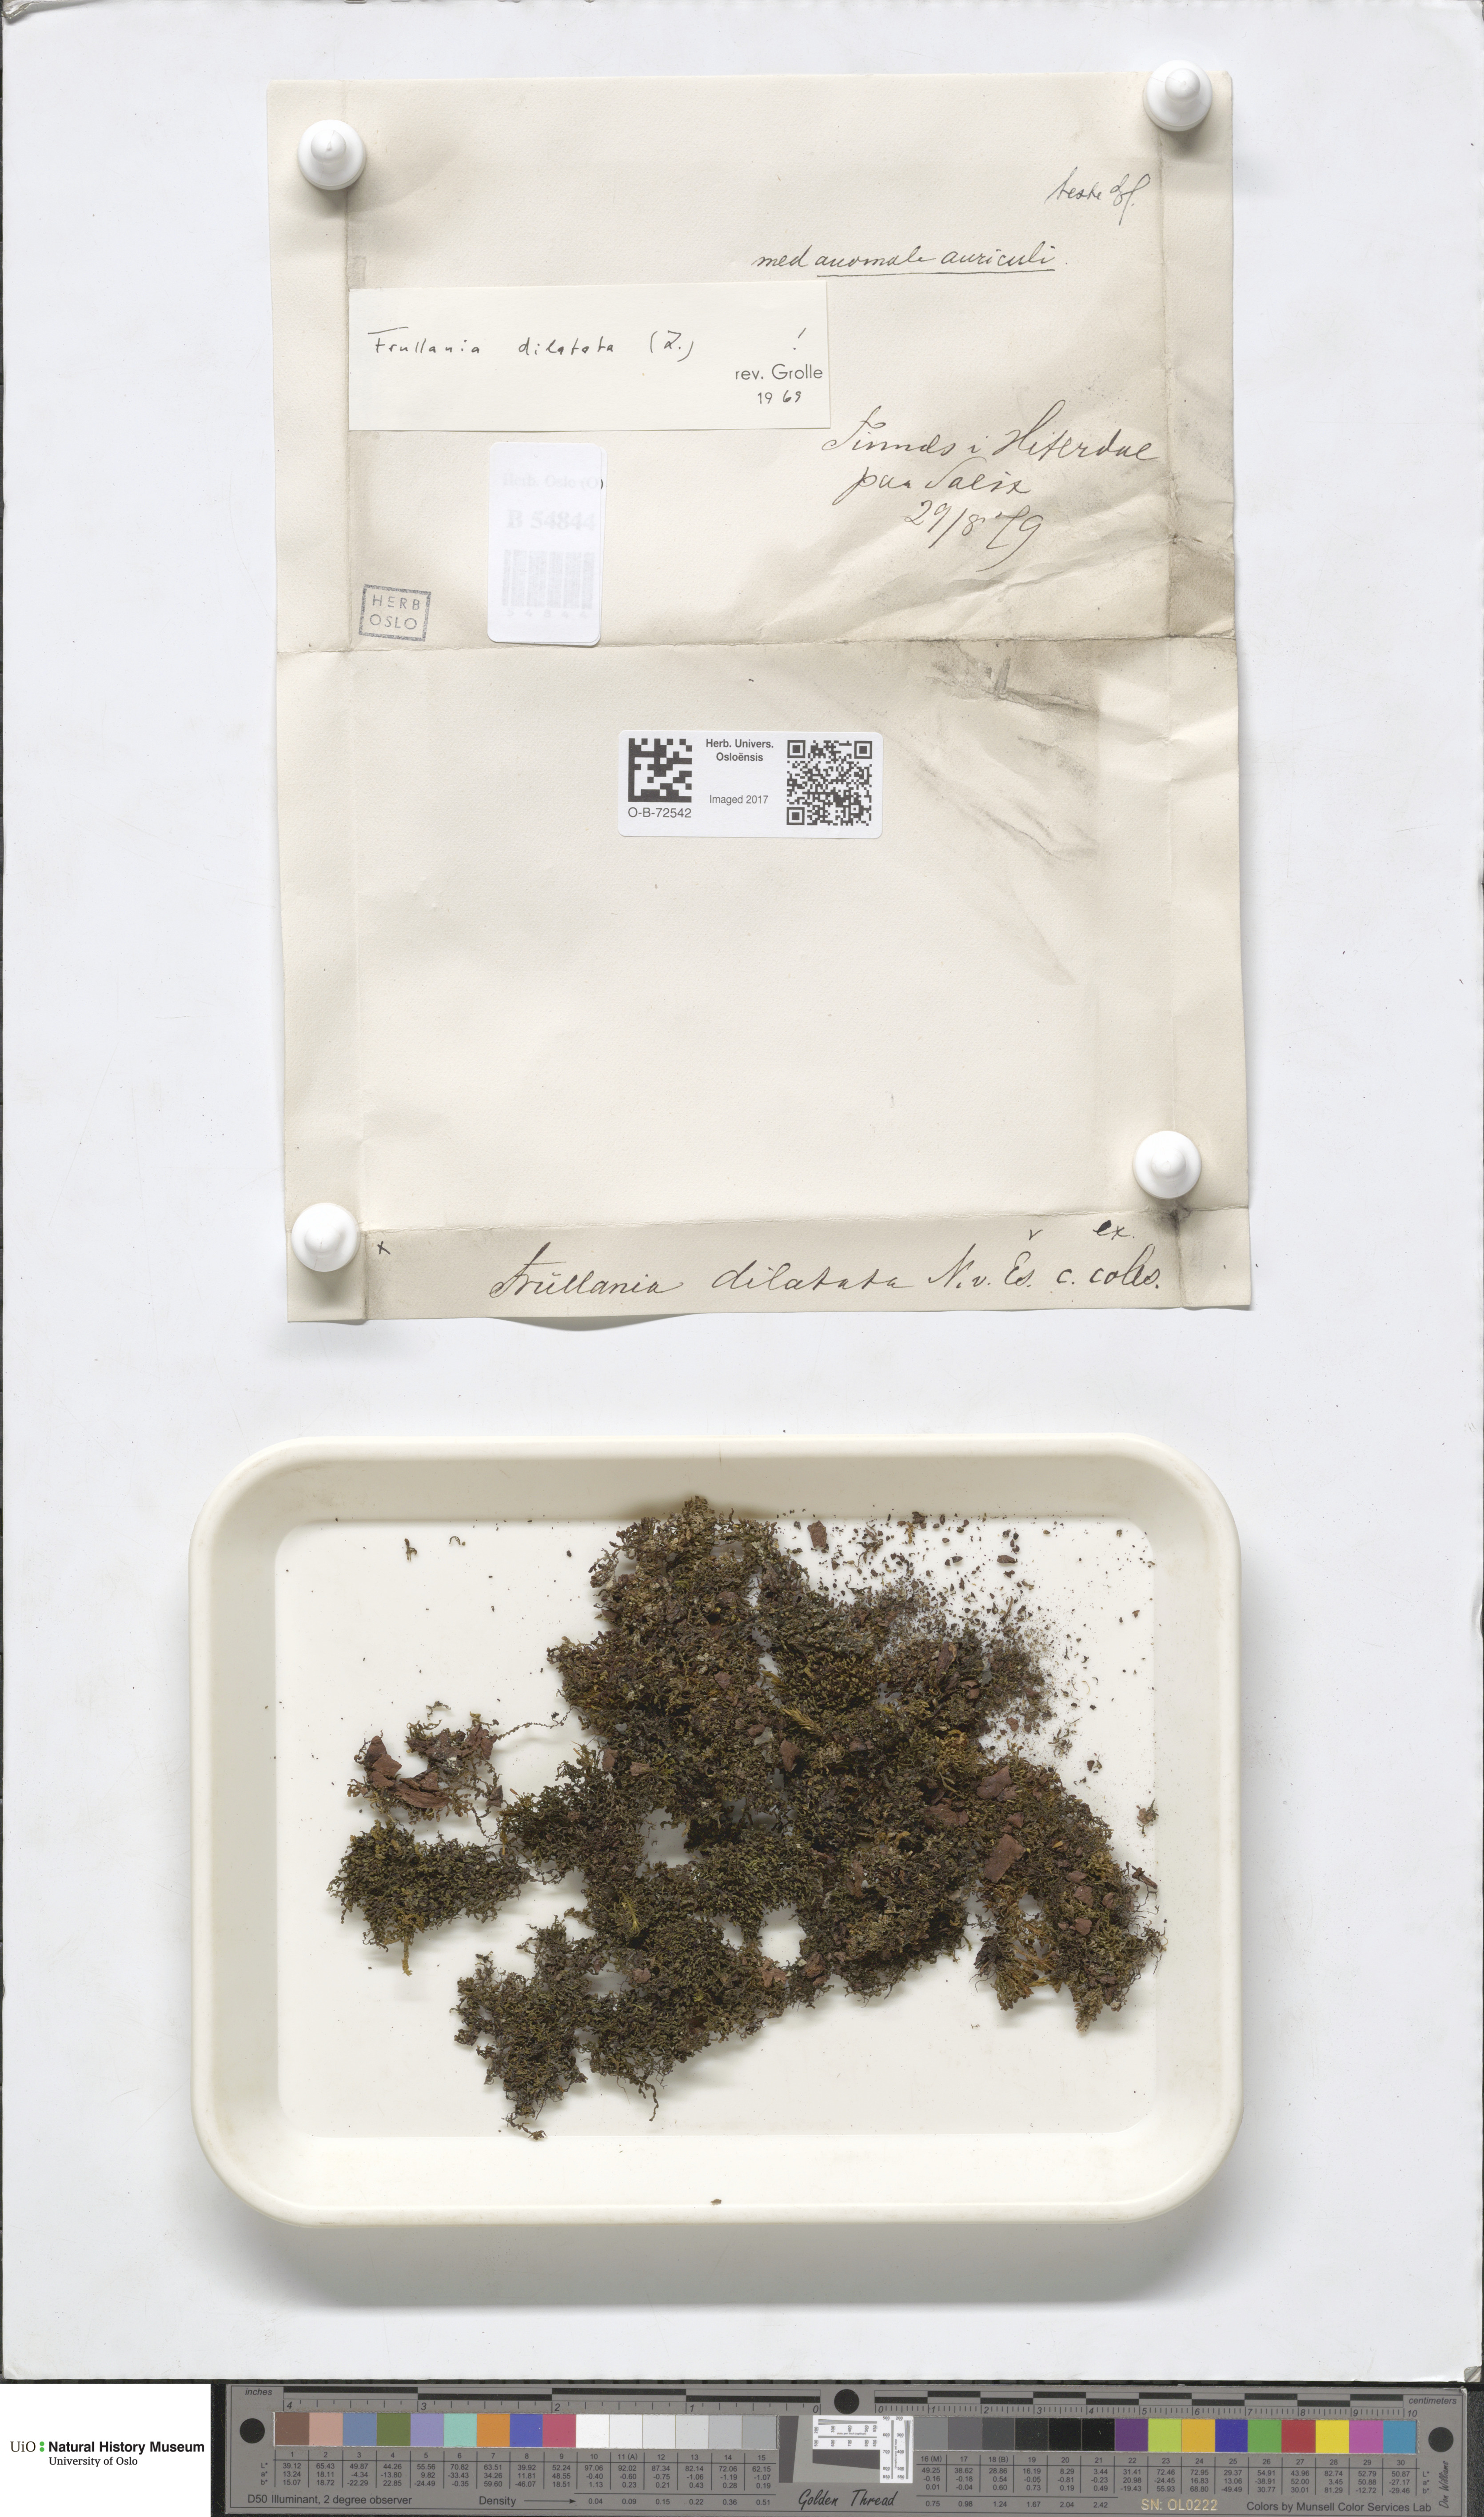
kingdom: Plantae
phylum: Marchantiophyta
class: Jungermanniopsida
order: Porellales
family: Frullaniaceae
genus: Frullania
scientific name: Frullania dilatata
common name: Dilated scalewort
